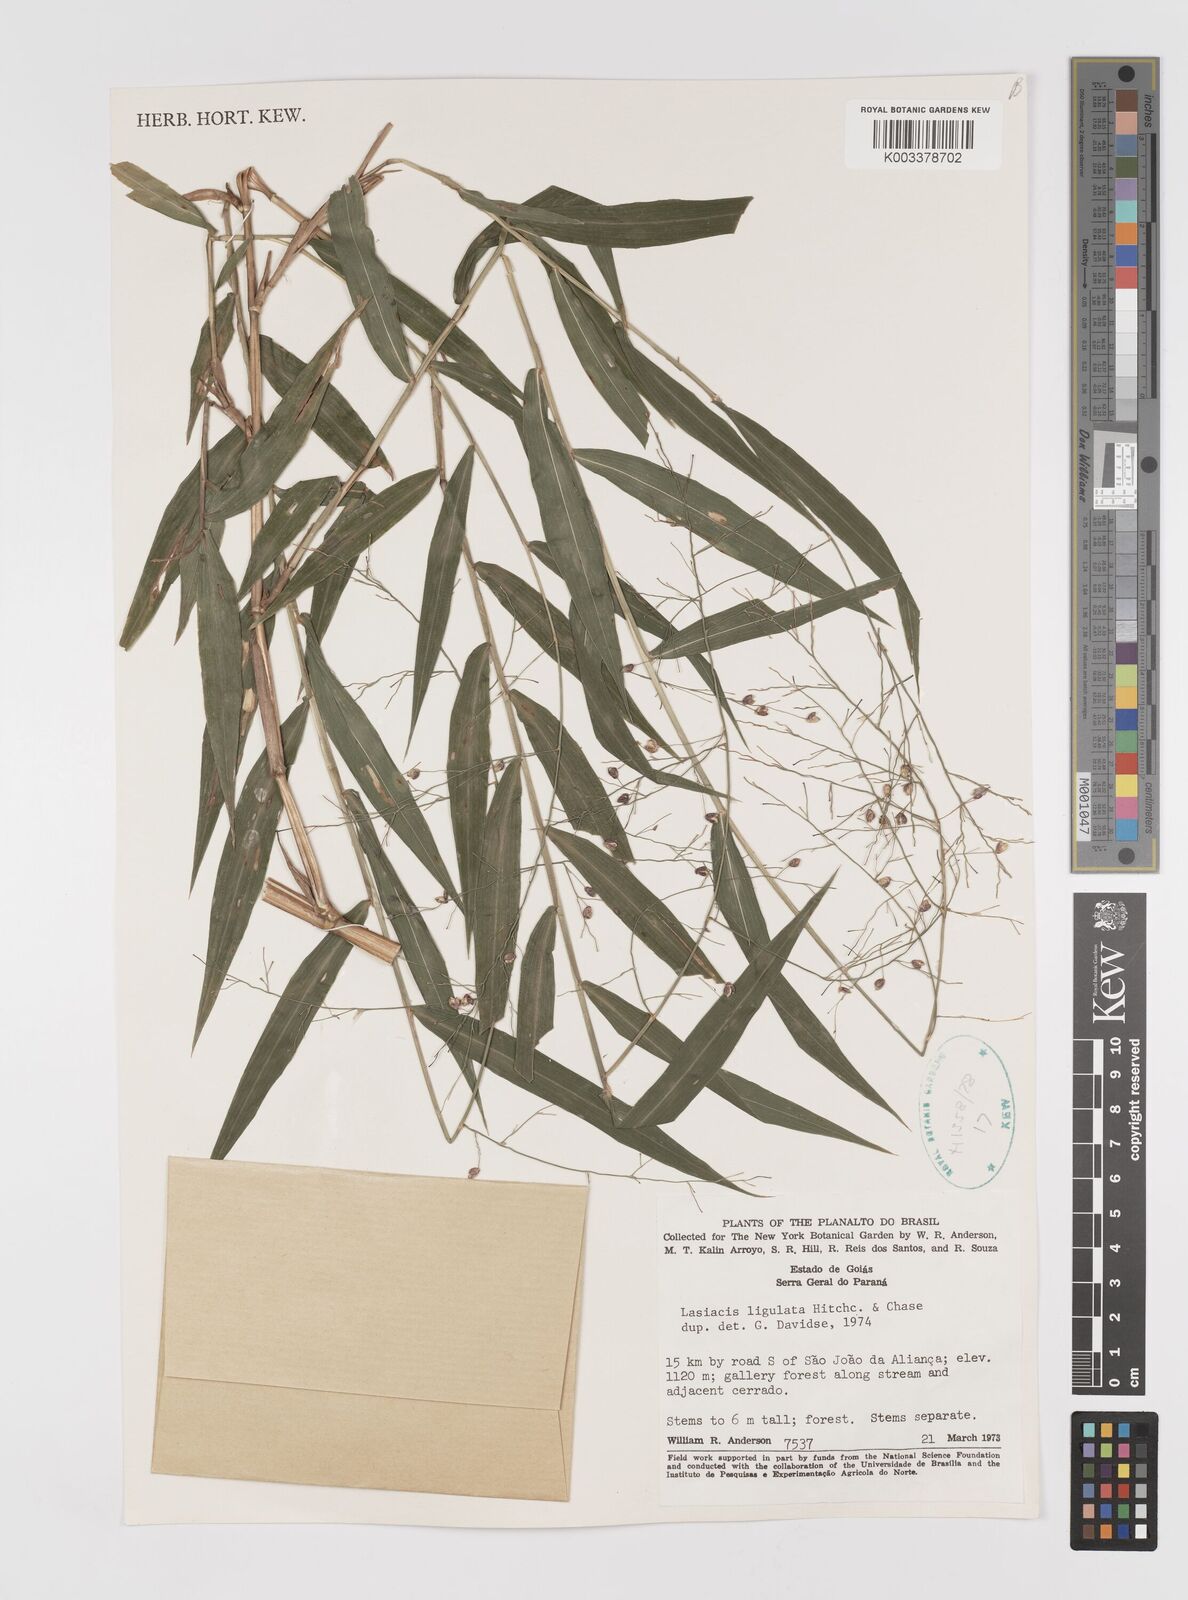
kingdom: Plantae
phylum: Tracheophyta
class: Liliopsida
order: Poales
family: Poaceae
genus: Lasiacis
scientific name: Lasiacis ligulata
